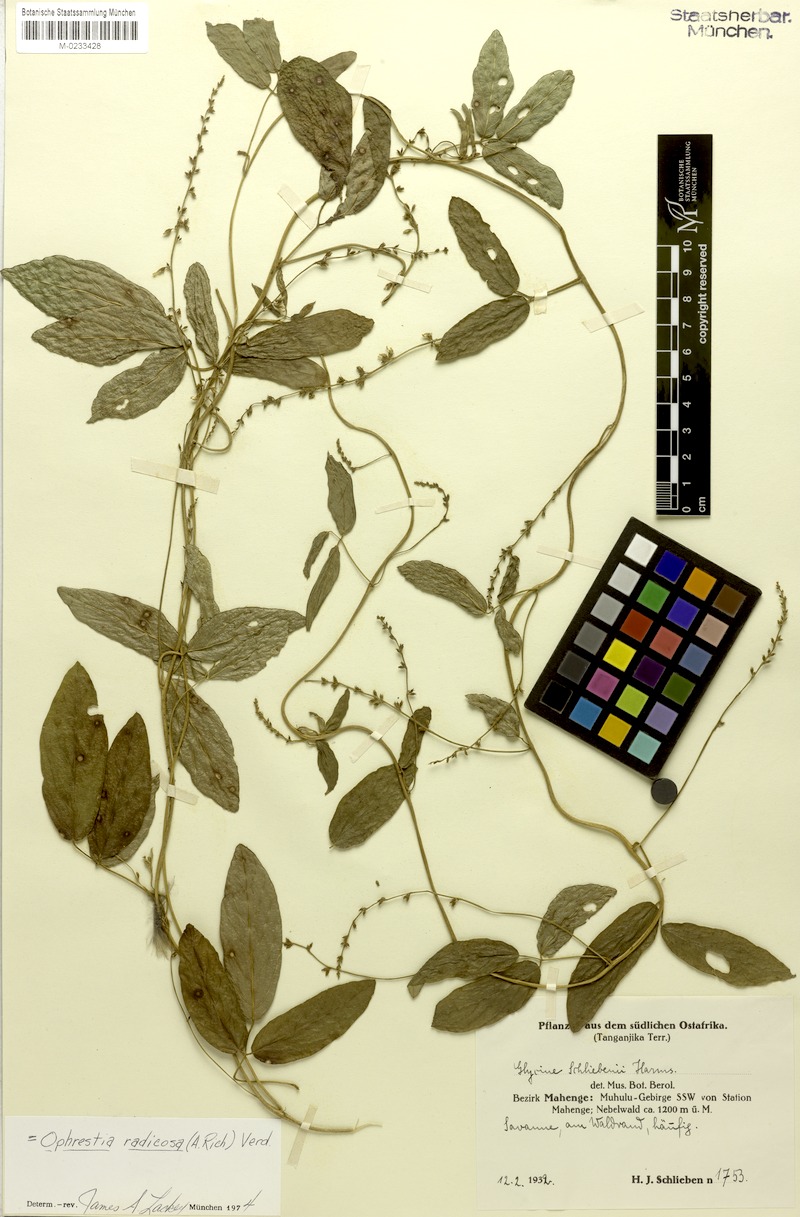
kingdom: Plantae
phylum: Tracheophyta
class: Magnoliopsida
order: Fabales
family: Fabaceae
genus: Ophrestia
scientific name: Ophrestia radicosa
